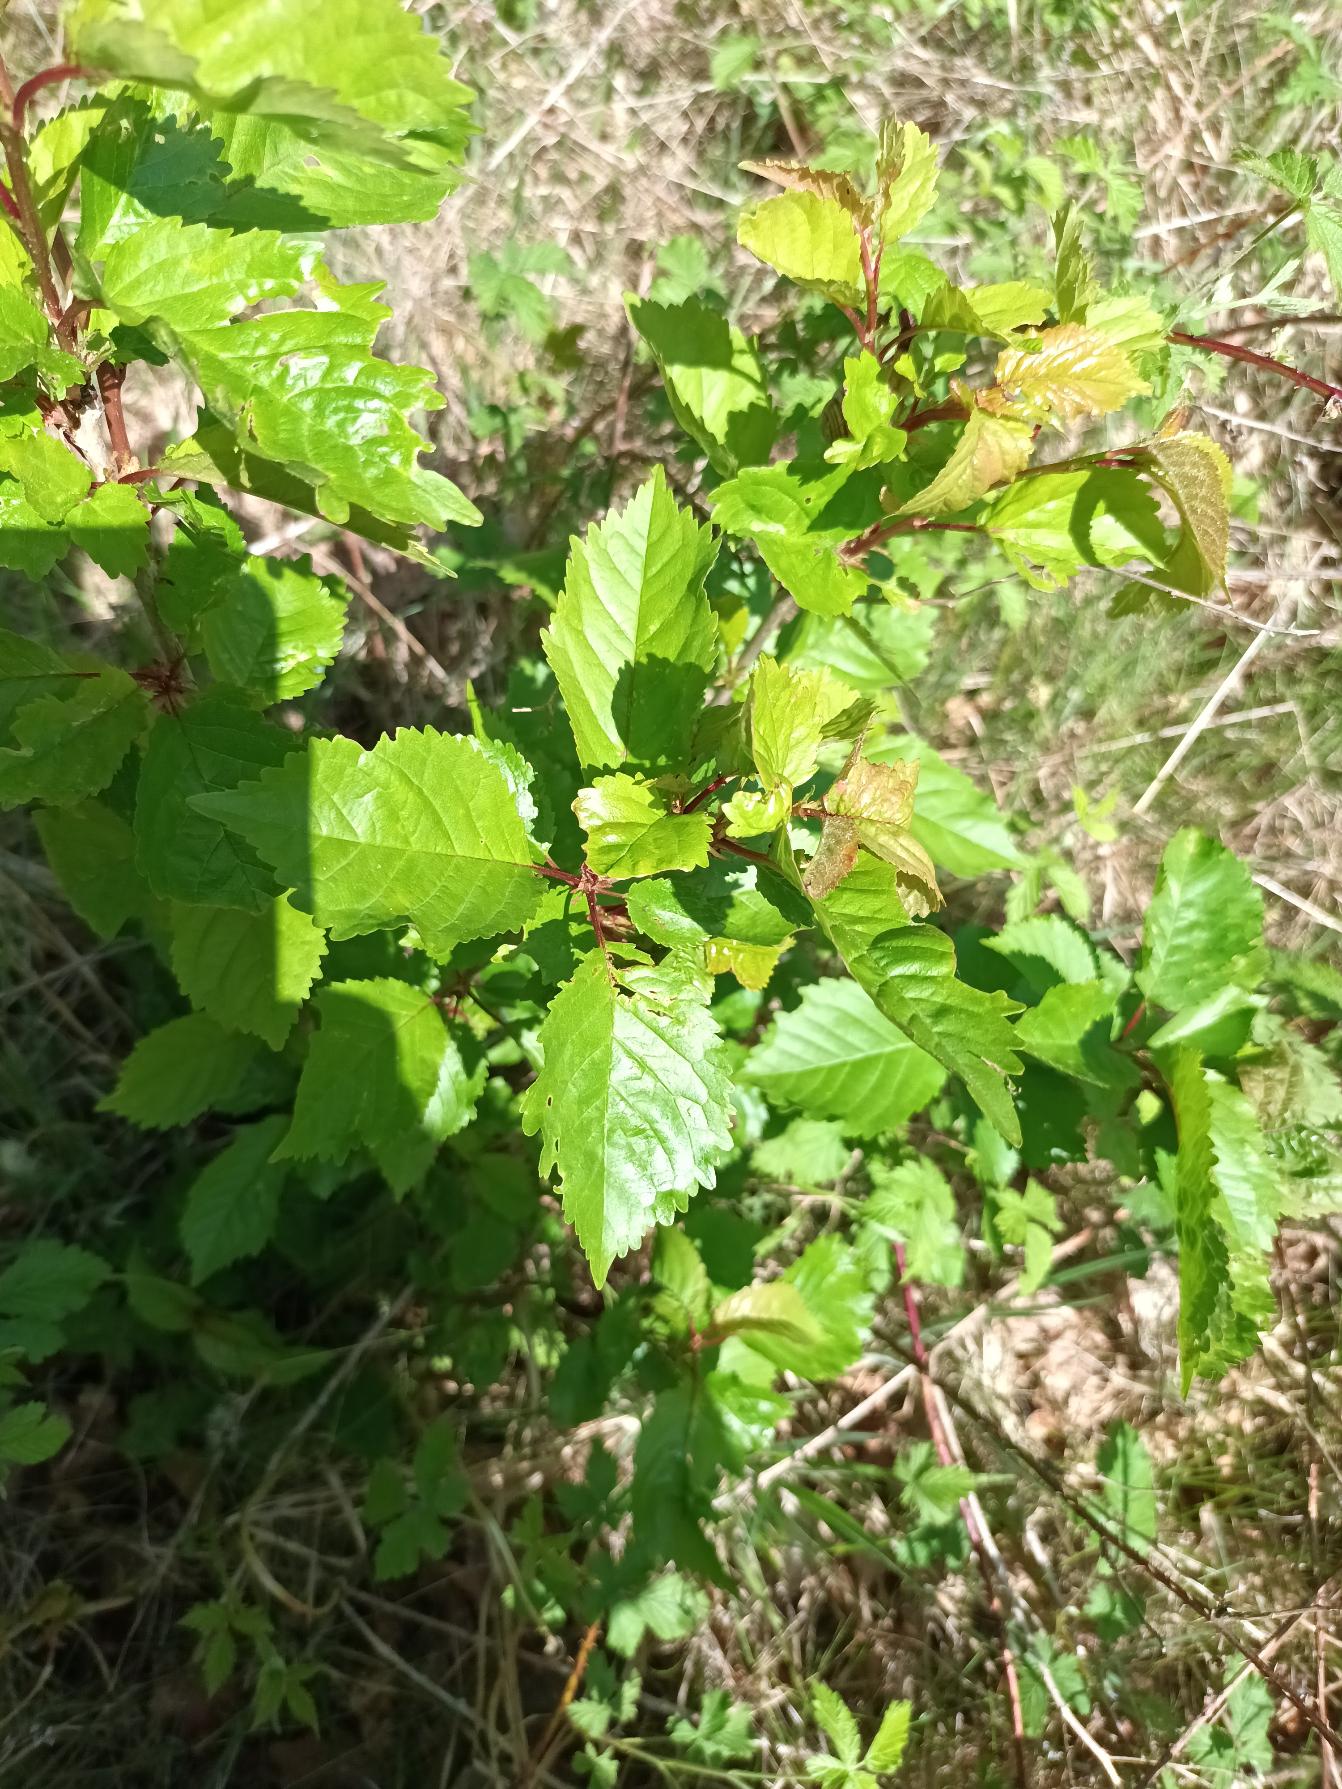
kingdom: Plantae
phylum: Tracheophyta
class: Magnoliopsida
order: Rosales
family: Rosaceae
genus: Prunus
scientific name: Prunus avium
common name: Fugle-kirsebær
